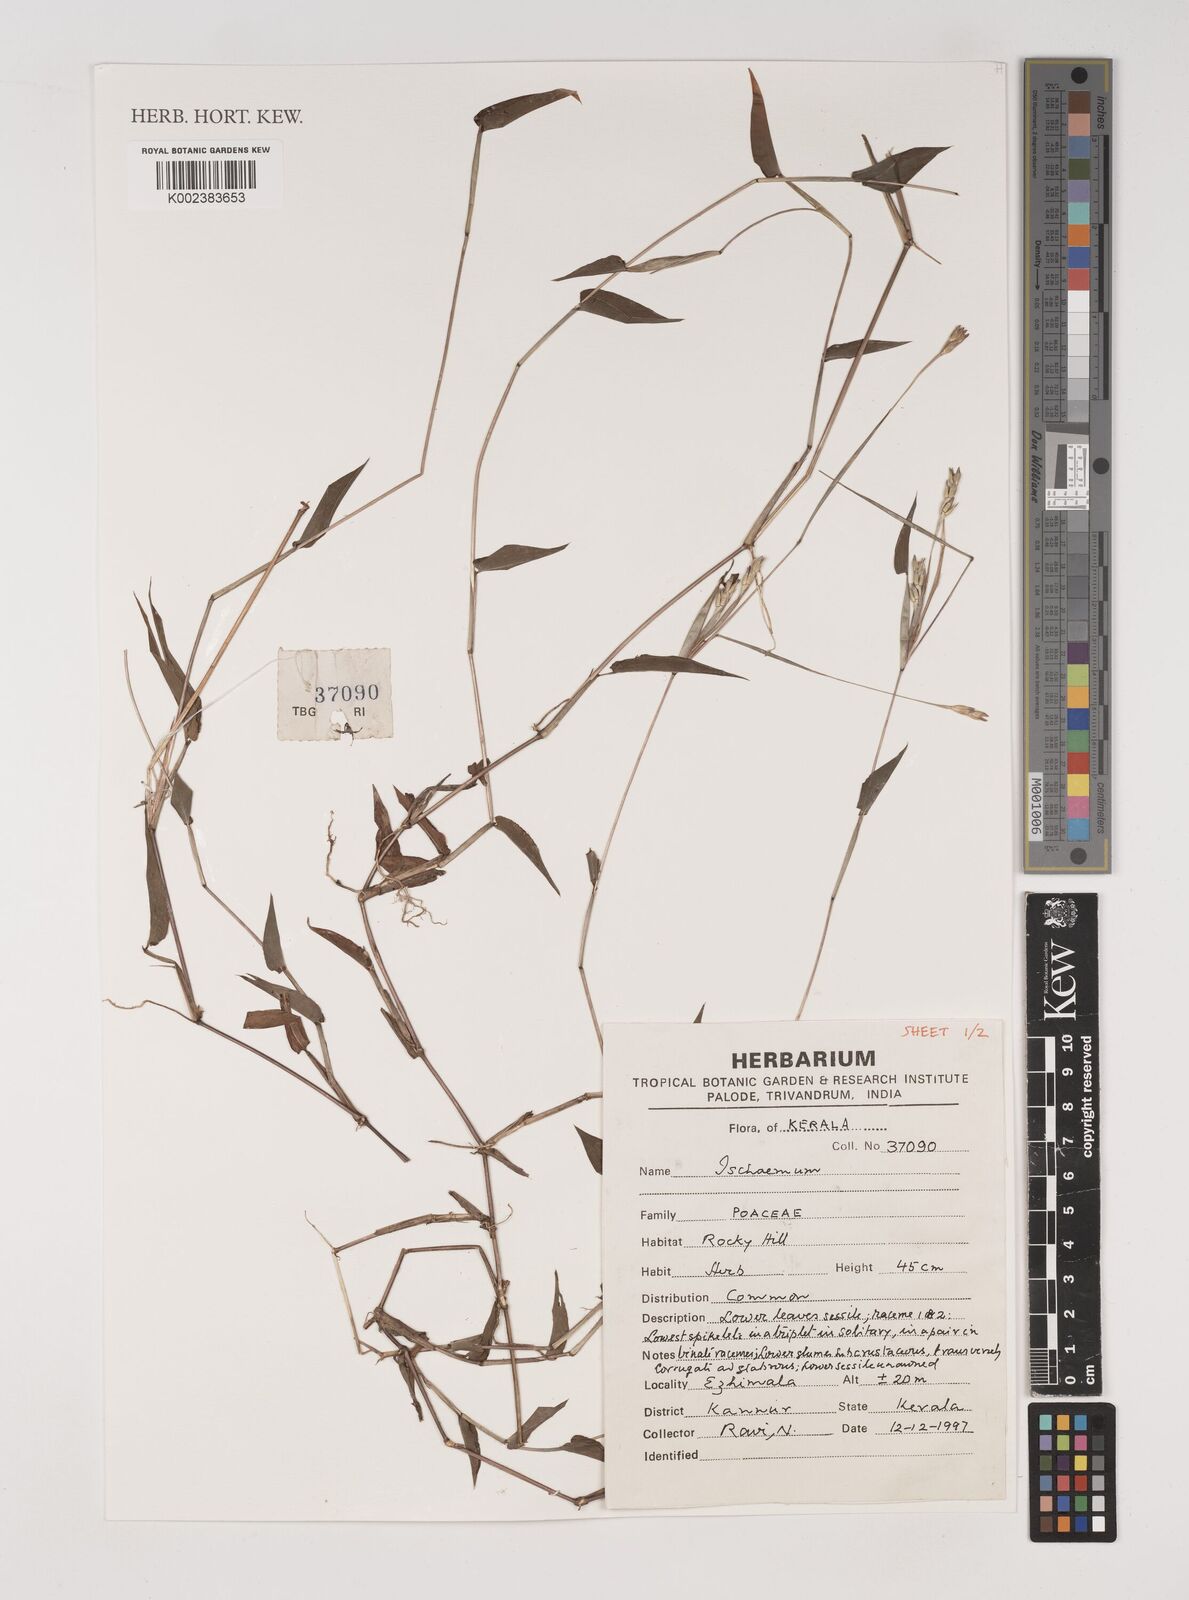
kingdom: Plantae
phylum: Tracheophyta
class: Liliopsida
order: Poales
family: Poaceae
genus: Ischaemum
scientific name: Ischaemum
